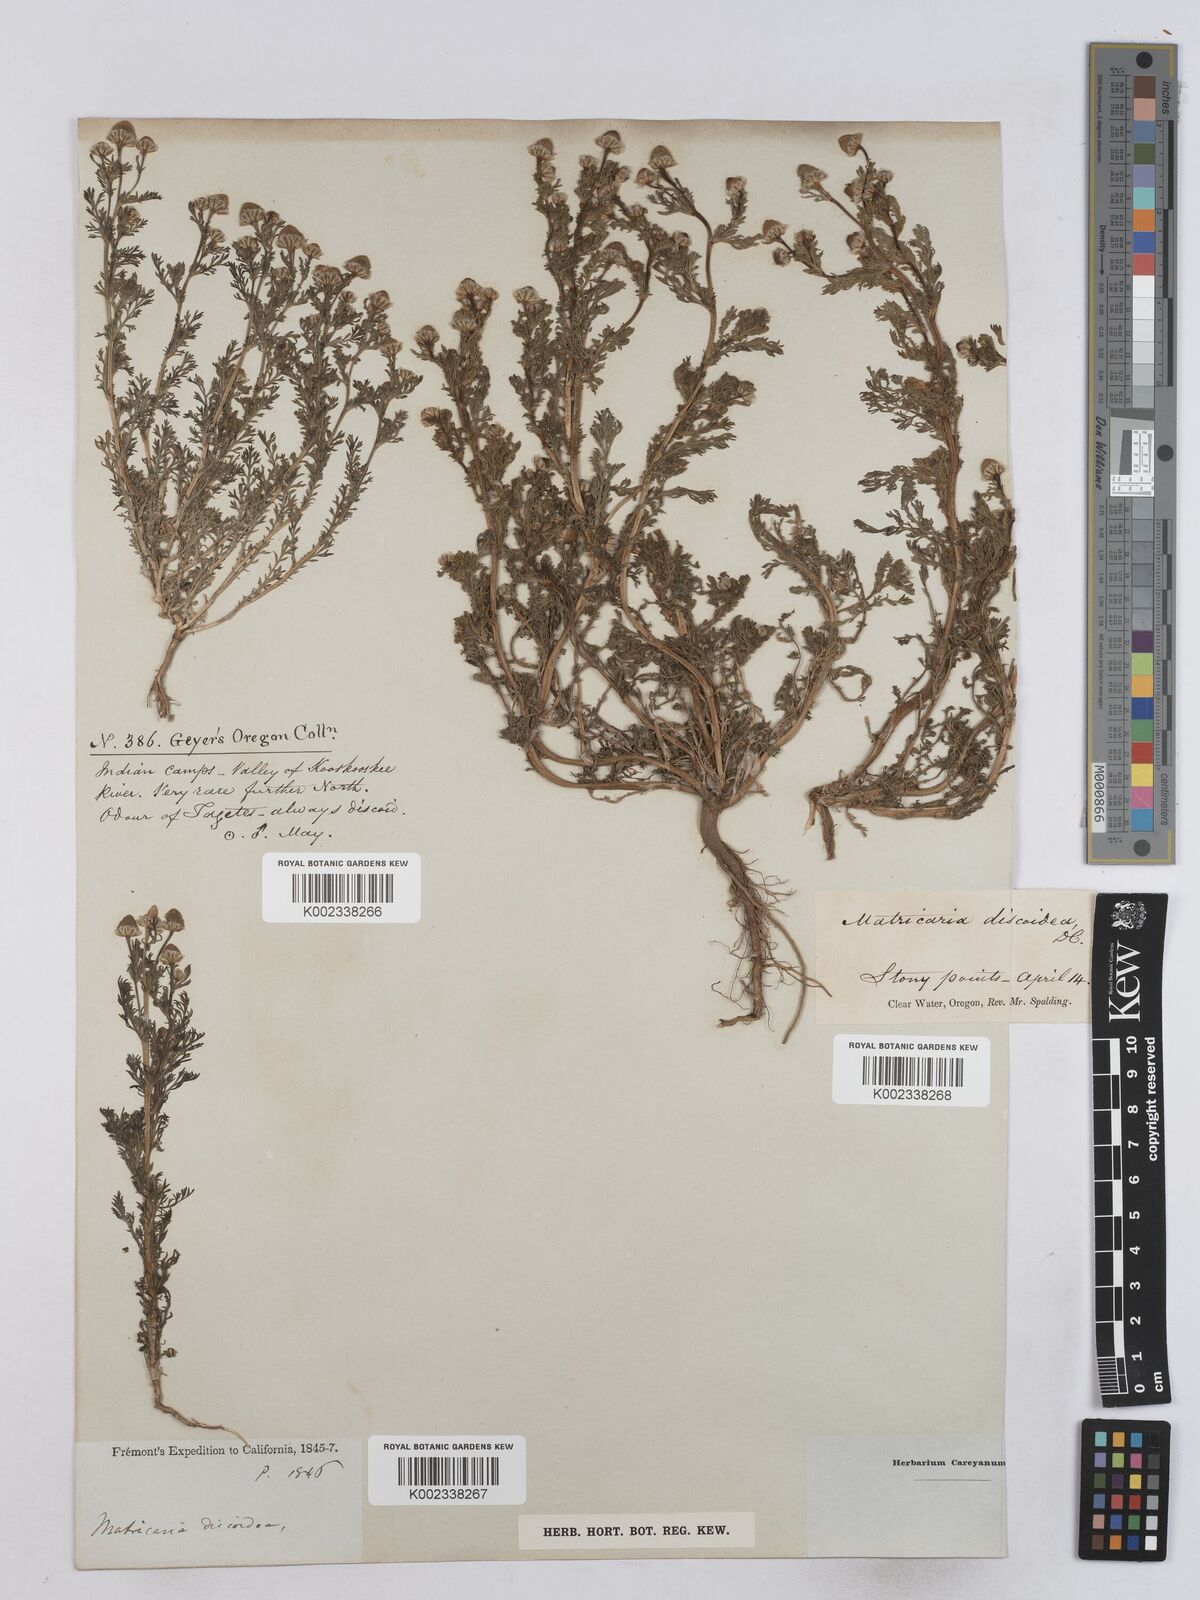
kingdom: Plantae
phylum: Tracheophyta
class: Magnoliopsida
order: Asterales
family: Asteraceae
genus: Matricaria
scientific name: Matricaria
